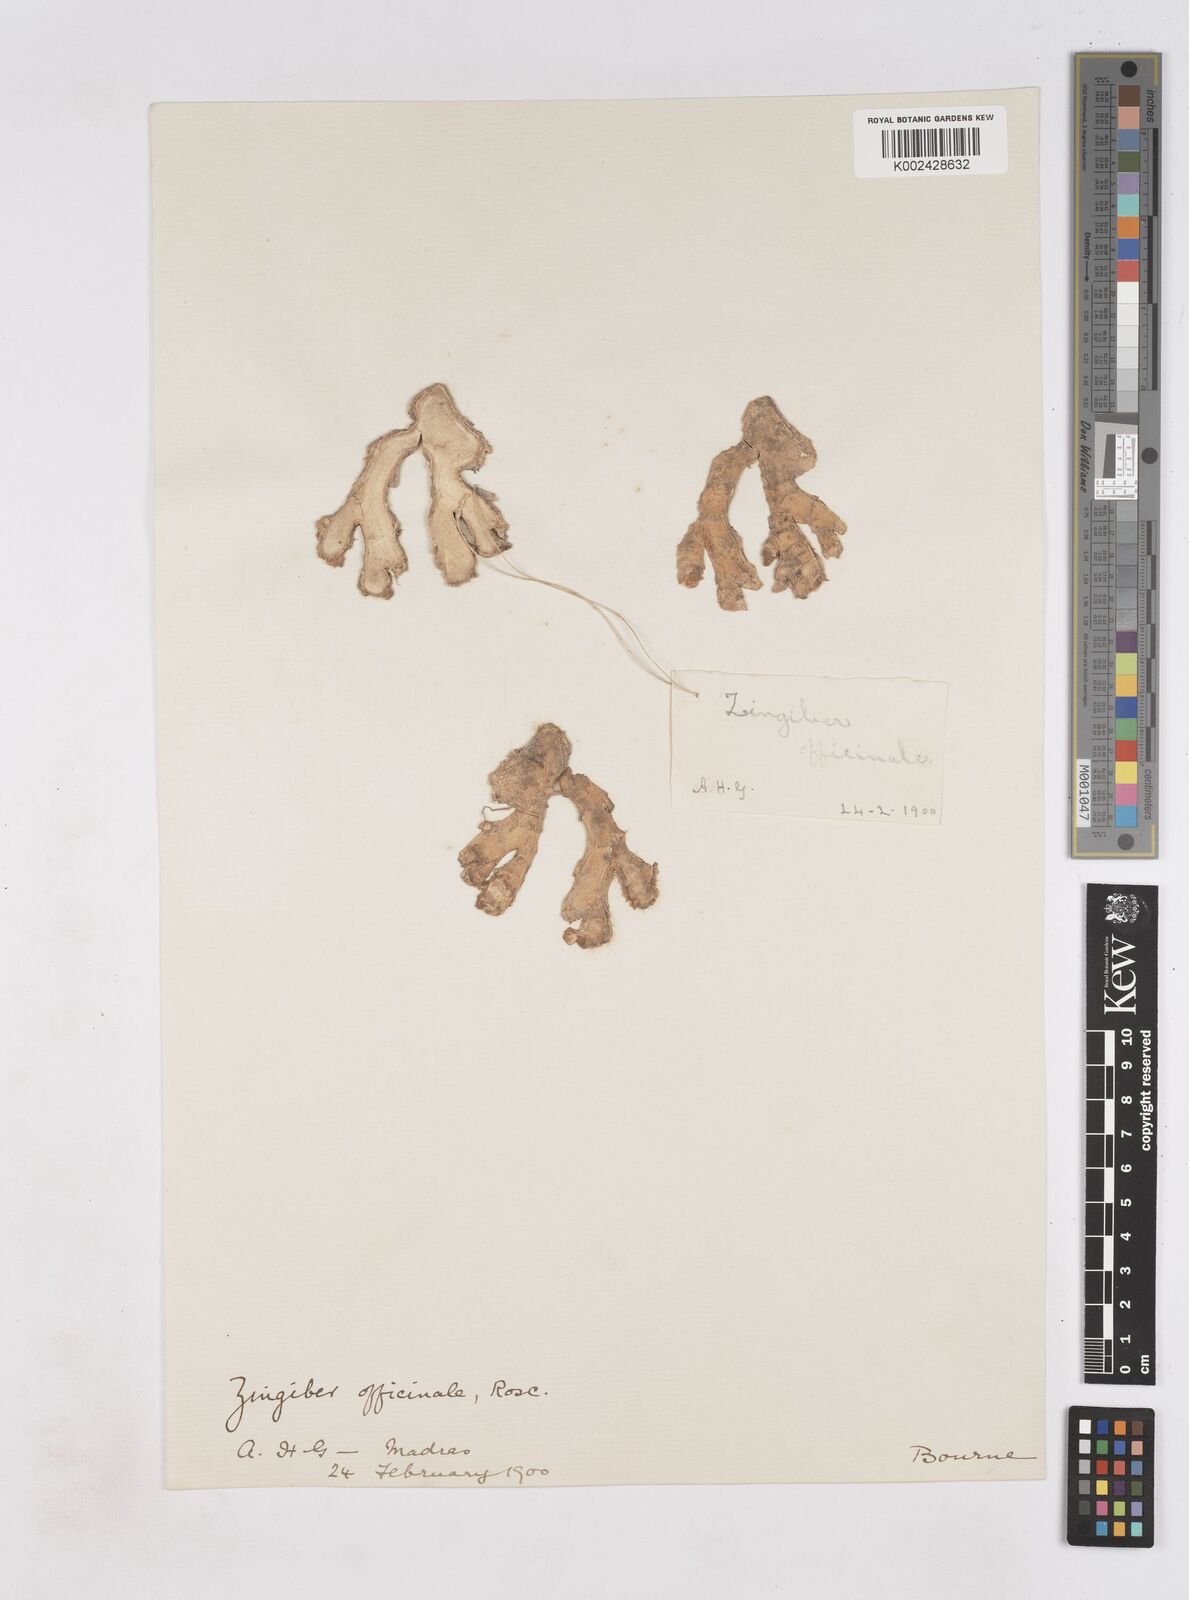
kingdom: Plantae
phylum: Tracheophyta
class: Liliopsida
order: Zingiberales
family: Zingiberaceae
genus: Zingiber
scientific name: Zingiber officinale
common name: Ginger
